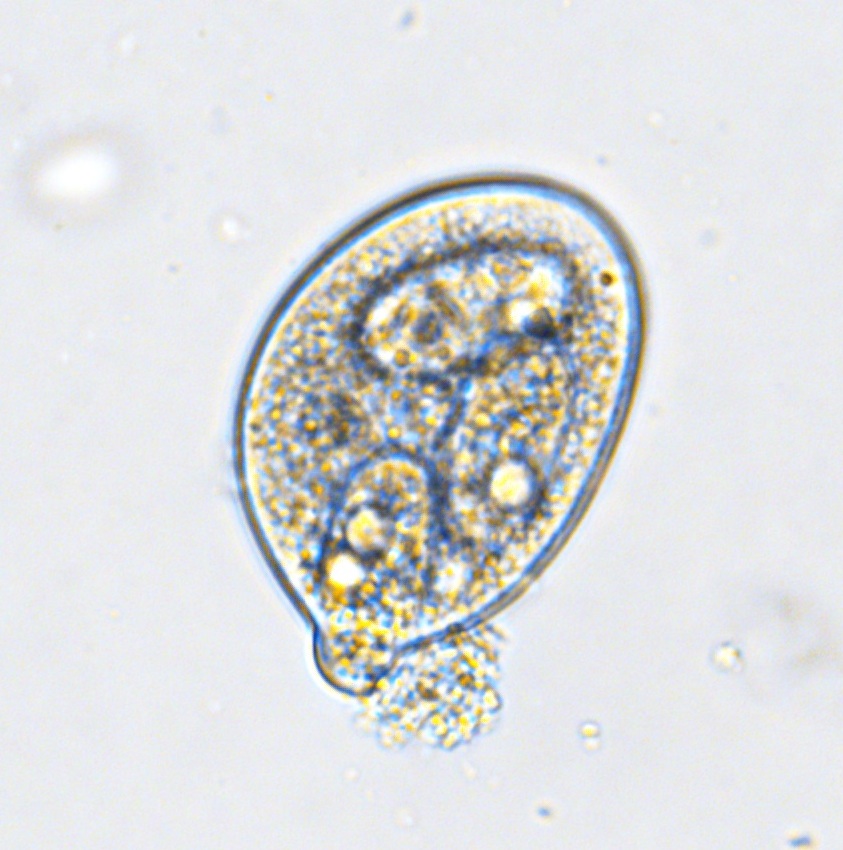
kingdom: Fungi
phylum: Ascomycota
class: Leotiomycetes
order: Helotiales
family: Erysiphaceae
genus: Erysiphe
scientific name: Erysiphe symphoricarpi
